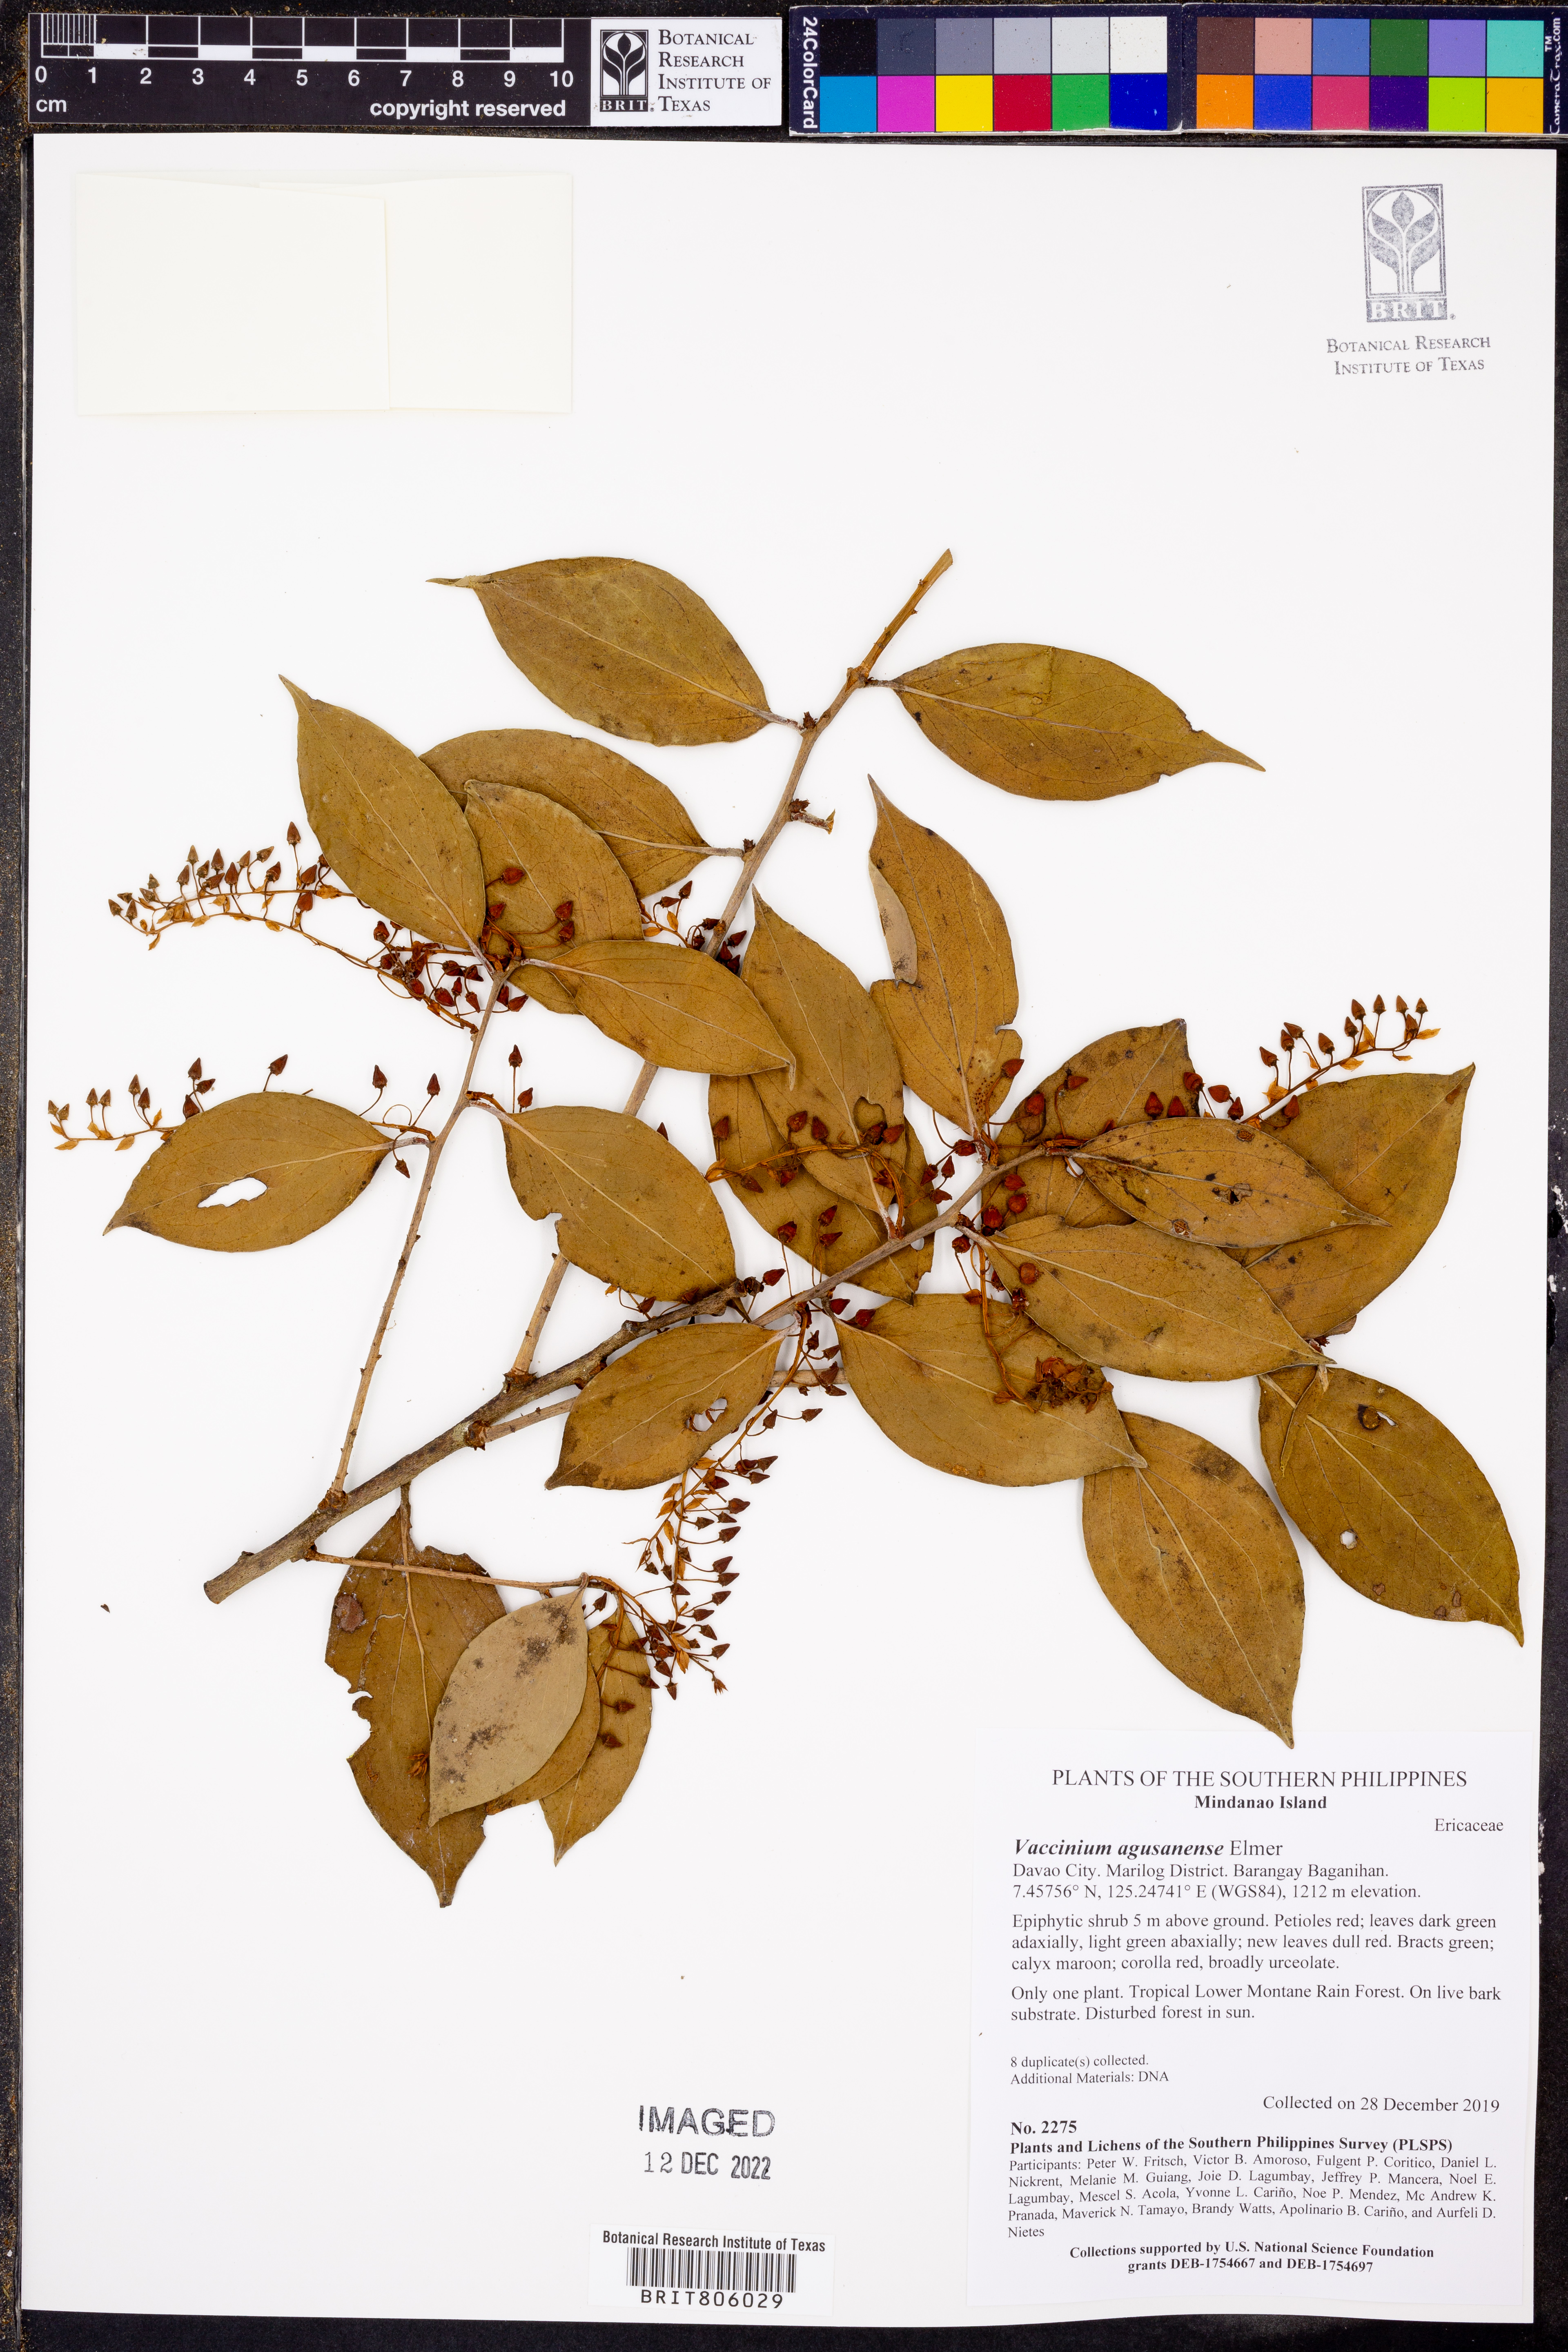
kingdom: Plantae
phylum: Tracheophyta
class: Magnoliopsida
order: Ericales
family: Ericaceae
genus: Vaccinium
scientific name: Vaccinium agusanense
